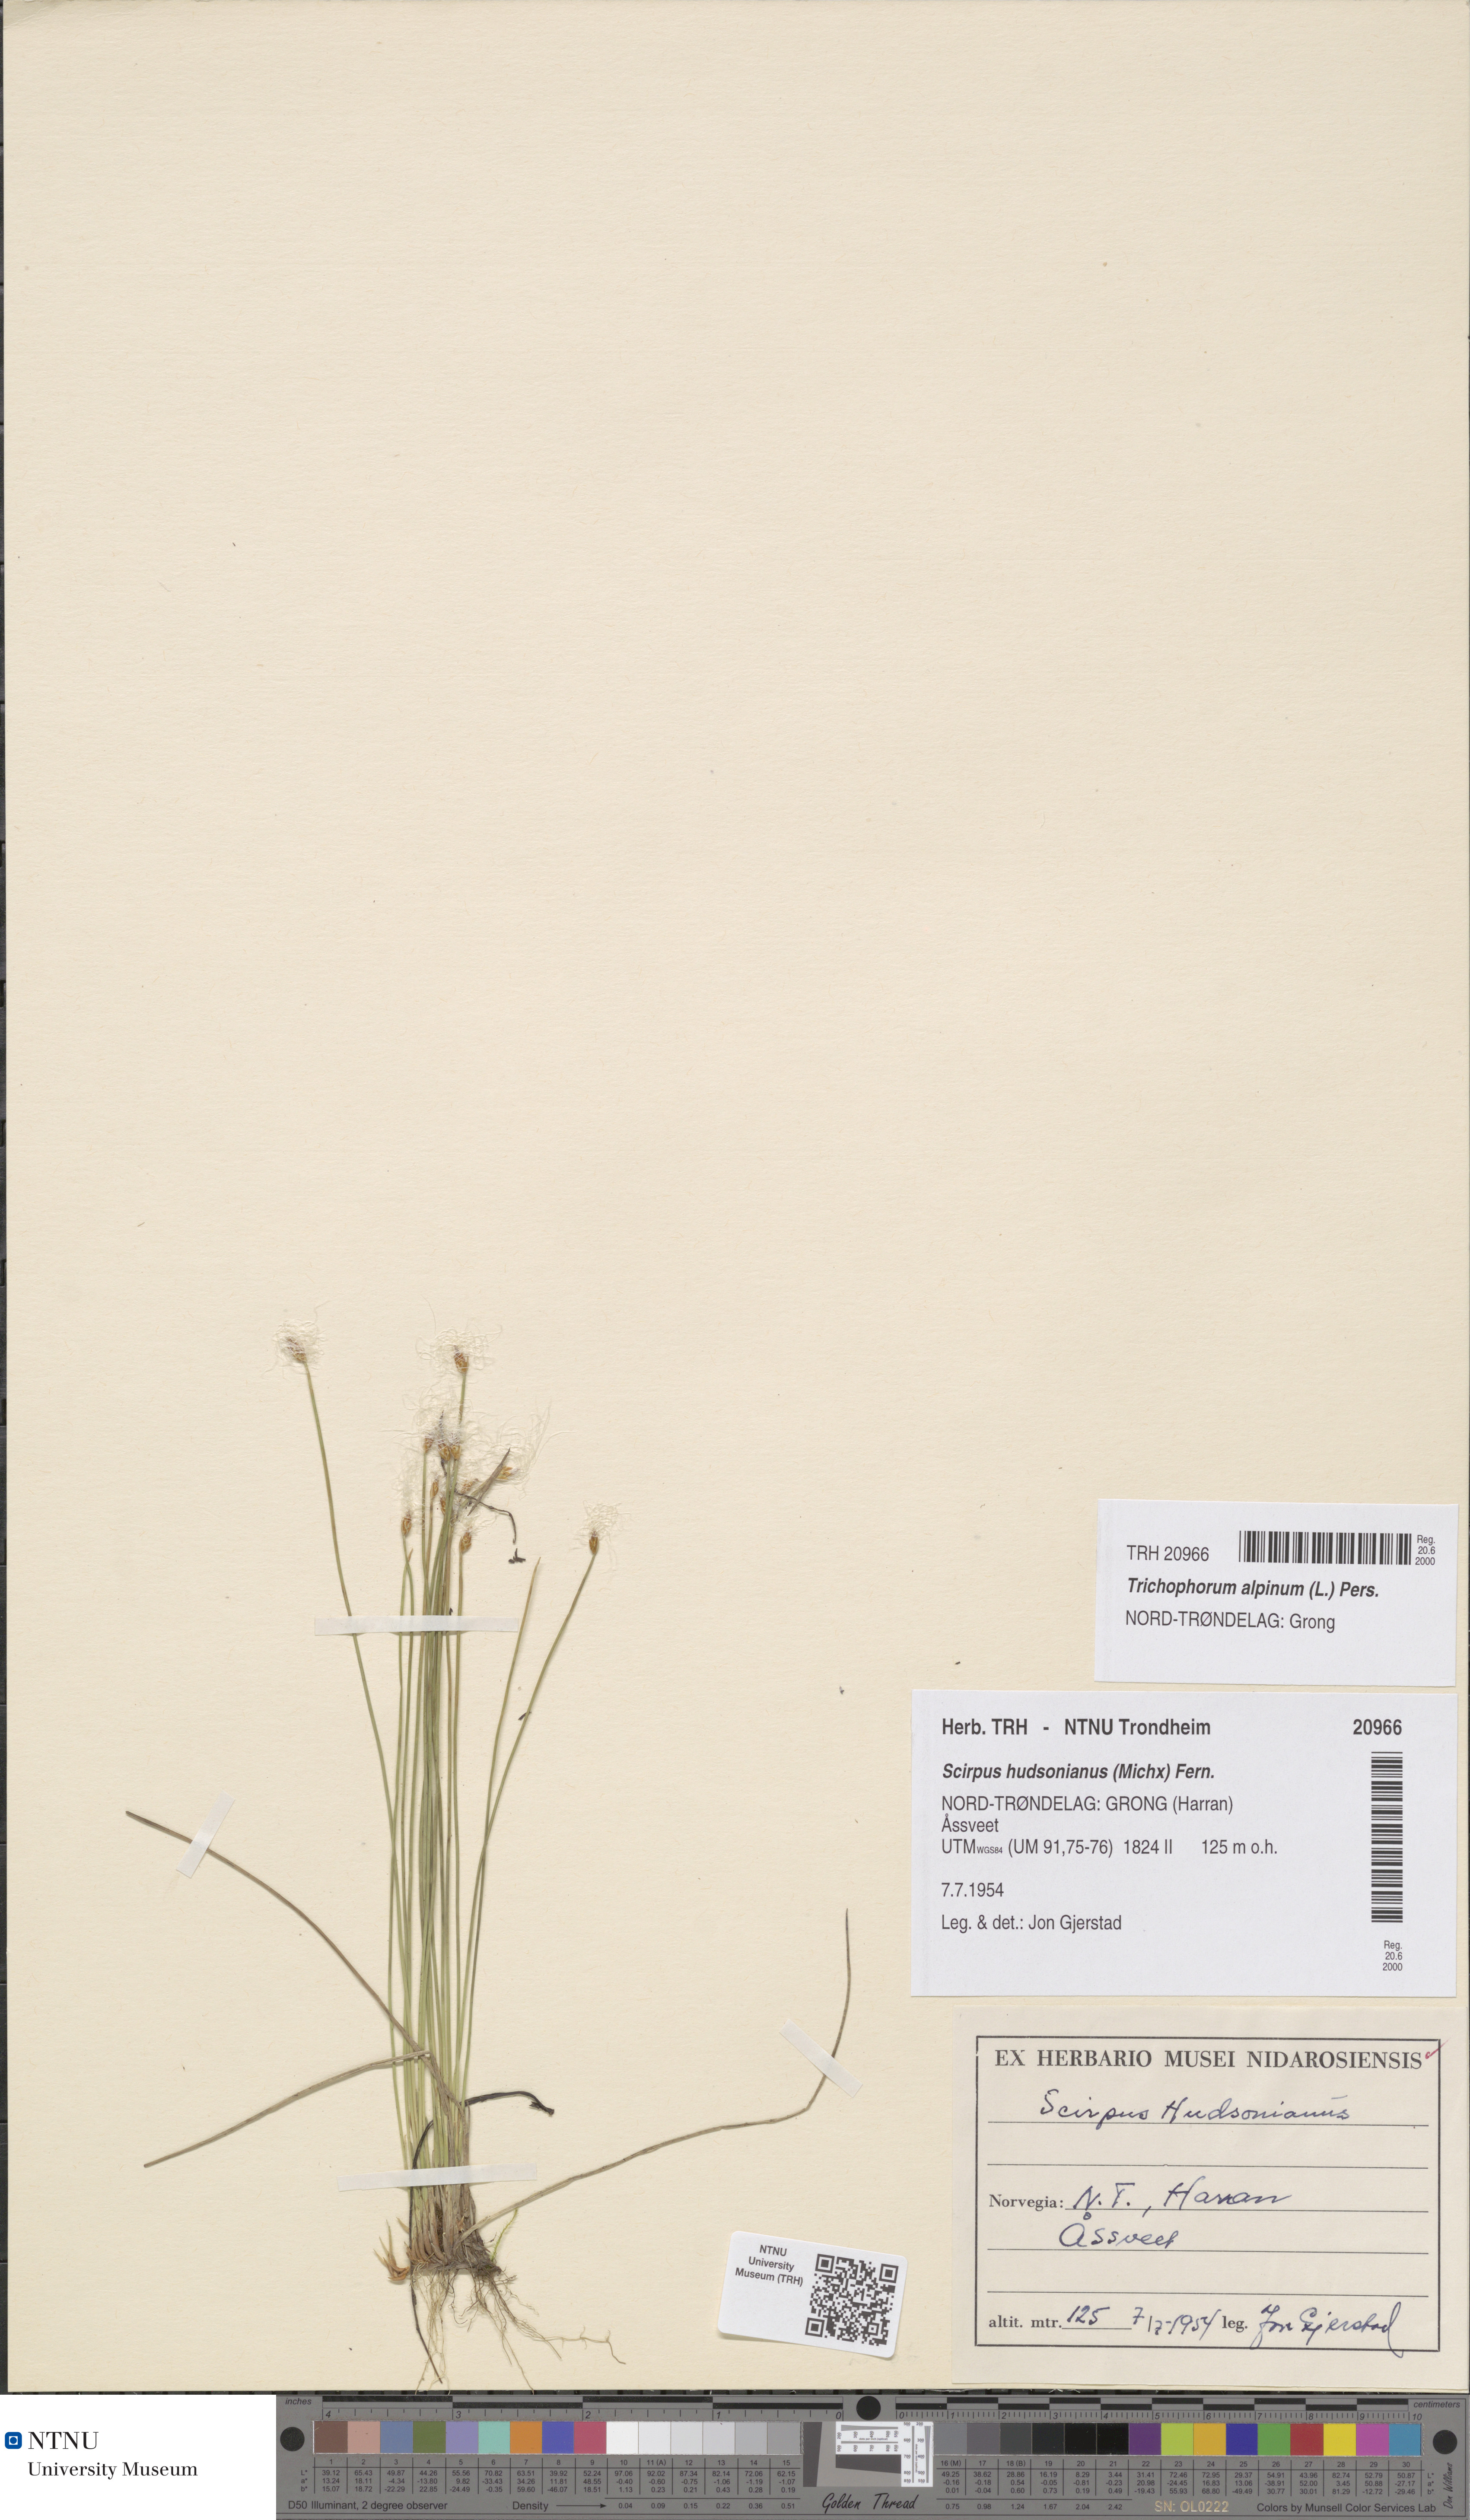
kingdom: Plantae
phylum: Tracheophyta
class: Liliopsida
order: Poales
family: Cyperaceae
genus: Trichophorum
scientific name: Trichophorum alpinum
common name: Alpine bulrush
